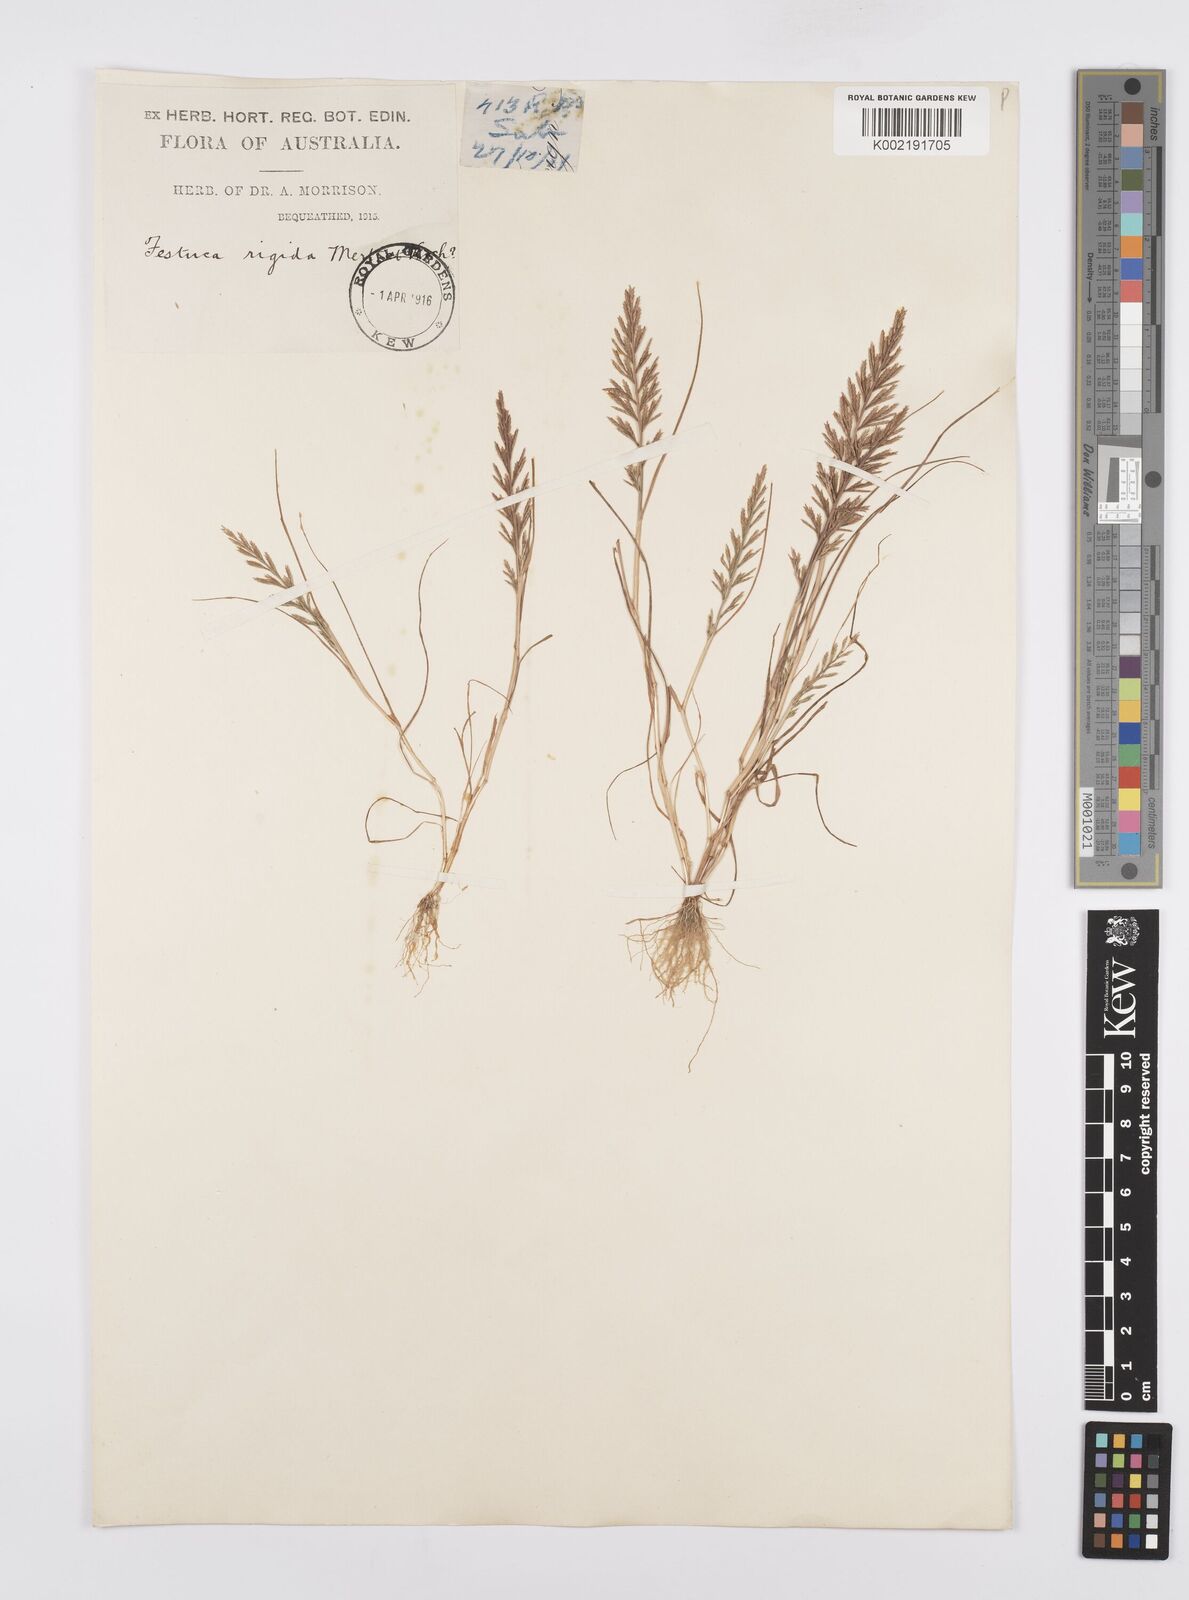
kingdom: Plantae
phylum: Tracheophyta
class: Liliopsida
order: Poales
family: Poaceae
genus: Catapodium
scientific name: Catapodium rigidum
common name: Fern-grass
